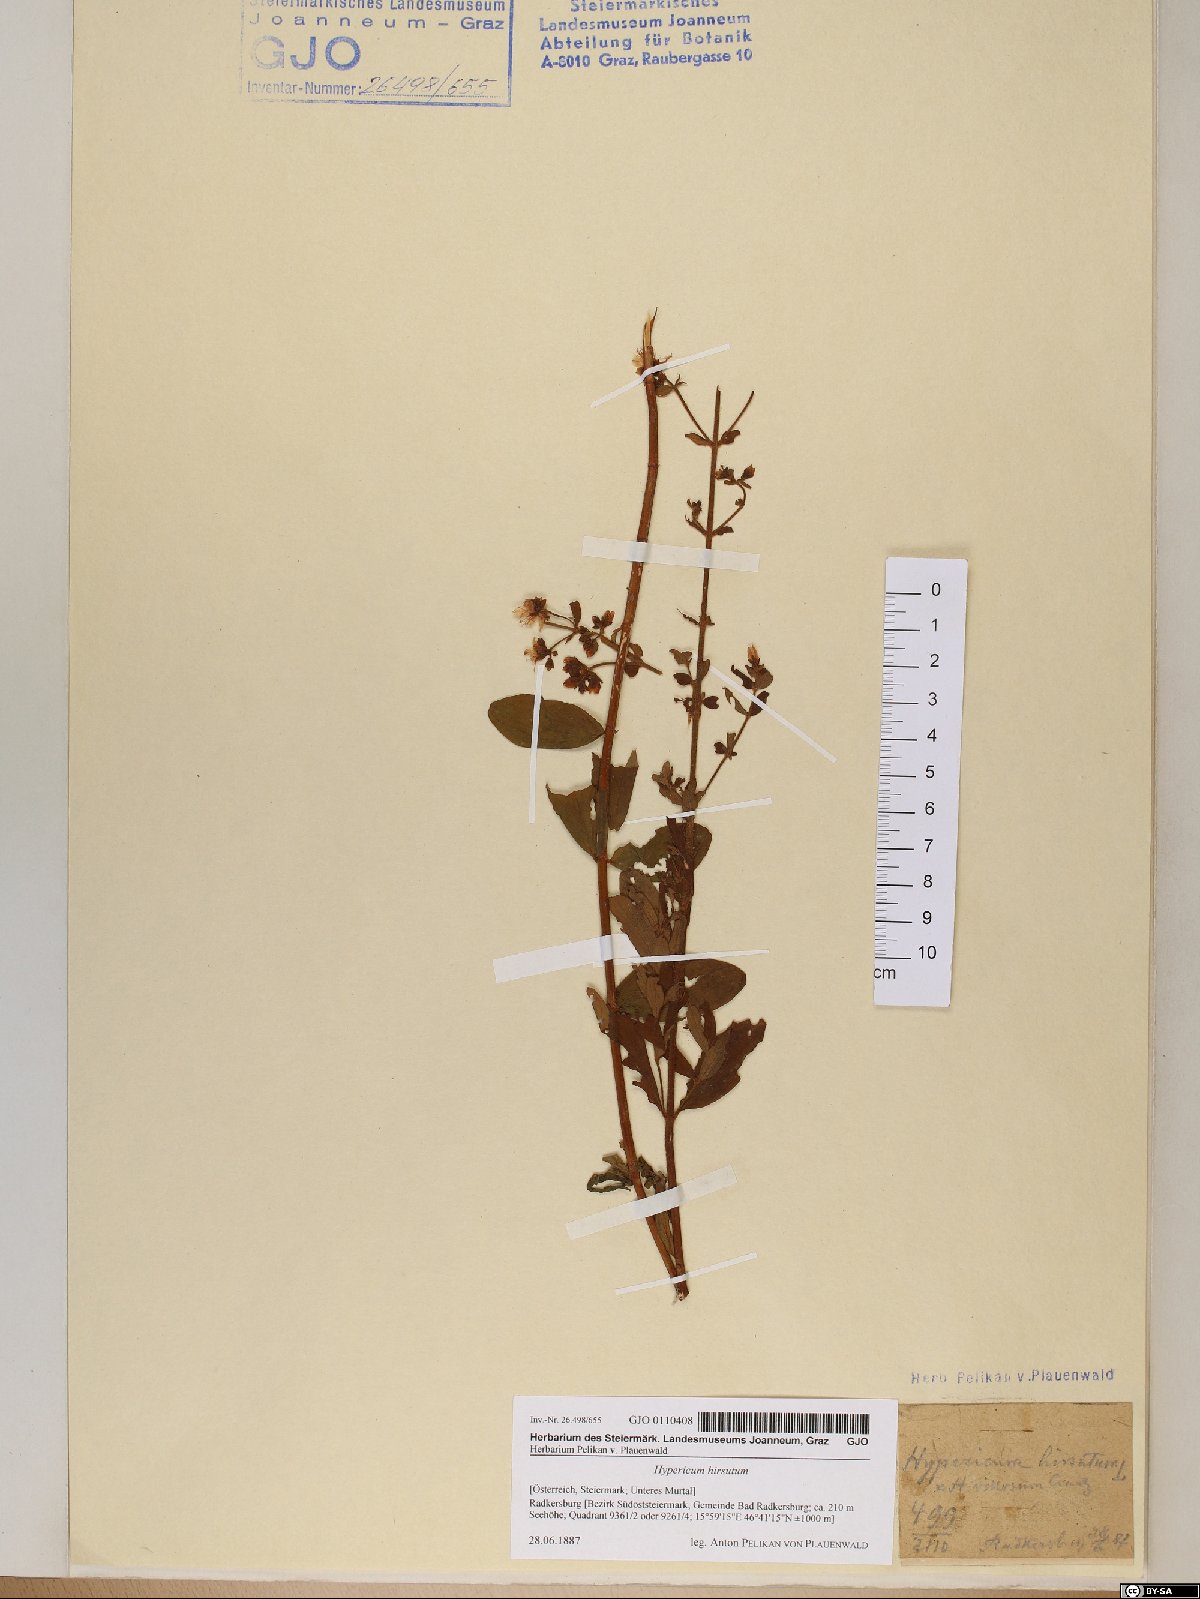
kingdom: Plantae
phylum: Tracheophyta
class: Magnoliopsida
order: Malpighiales
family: Hypericaceae
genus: Hypericum
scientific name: Hypericum hirsutum
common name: Hairy st. john's-wort
